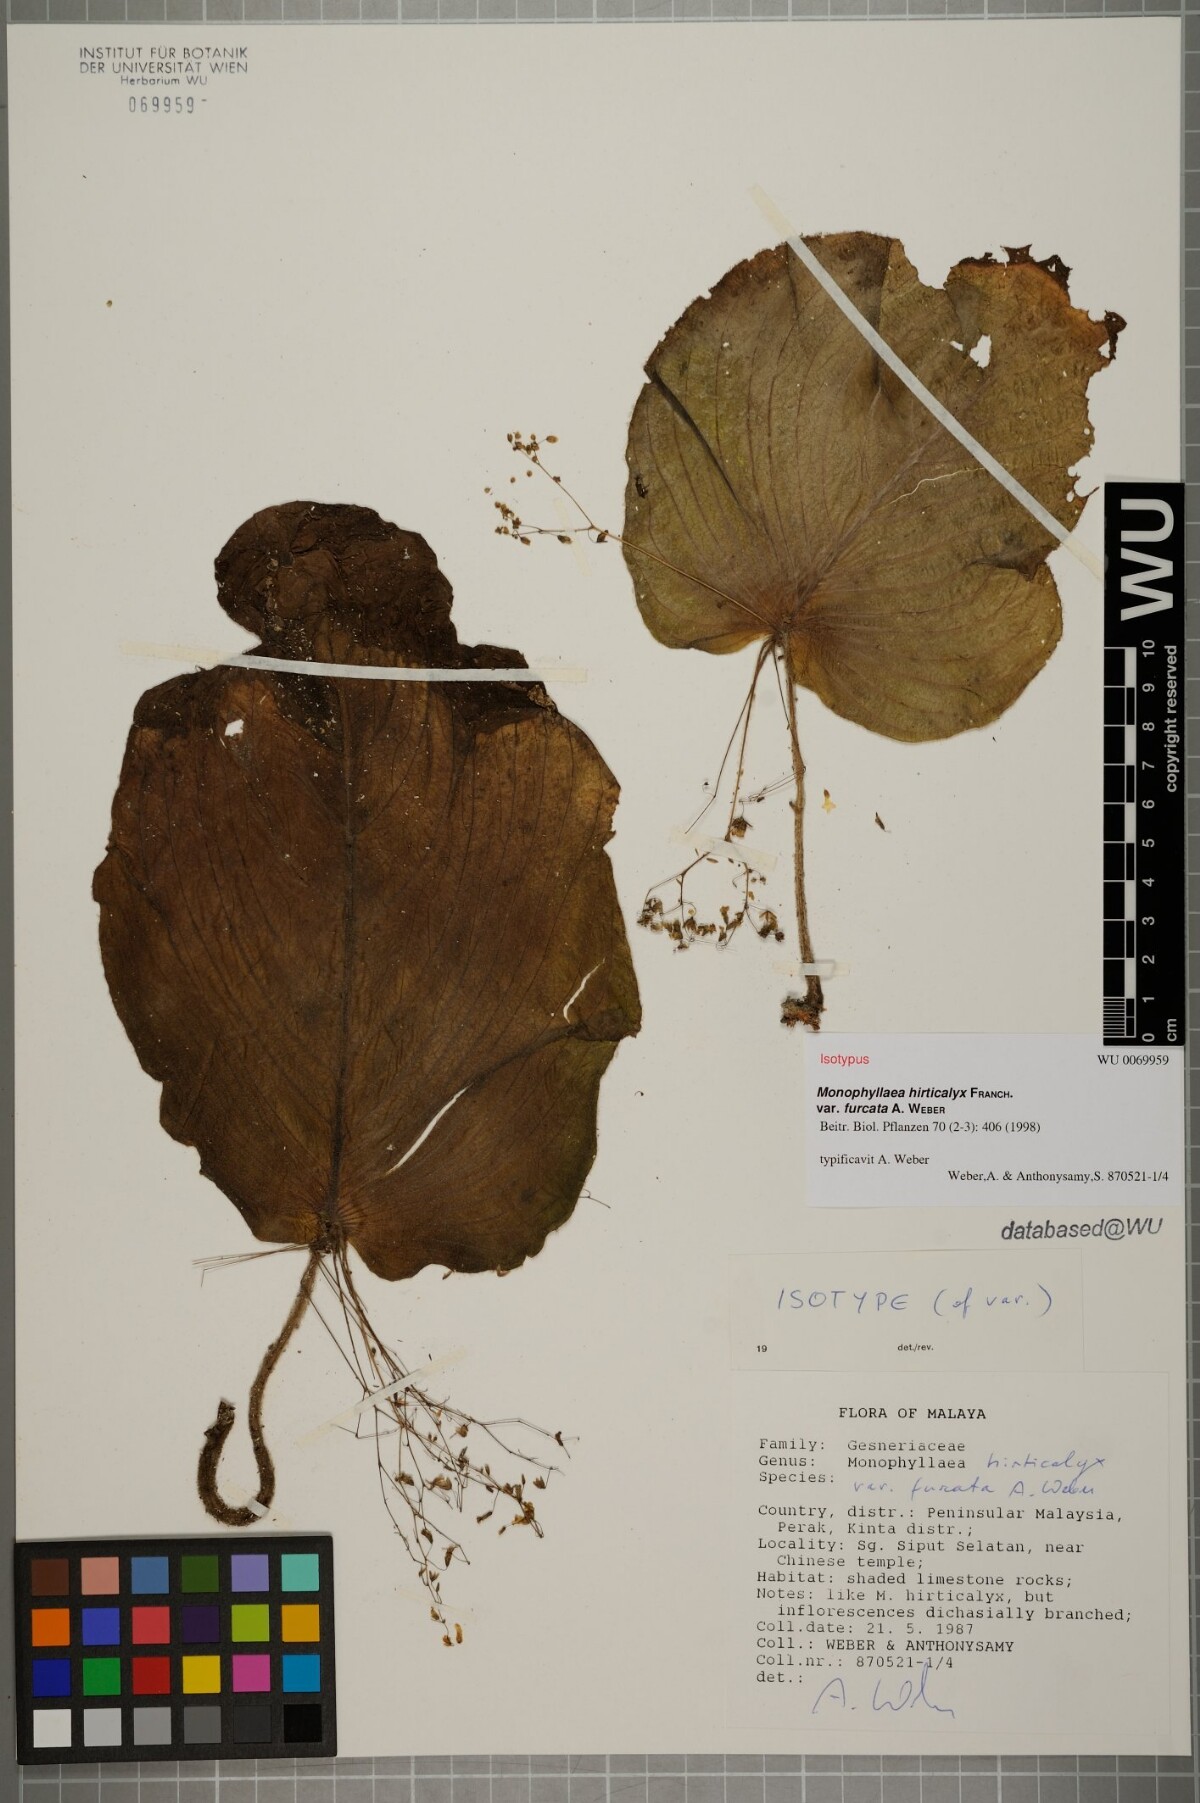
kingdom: Plantae
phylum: Tracheophyta
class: Magnoliopsida
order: Lamiales
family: Gesneriaceae
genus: Monophyllaea
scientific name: Monophyllaea hirticalyx
